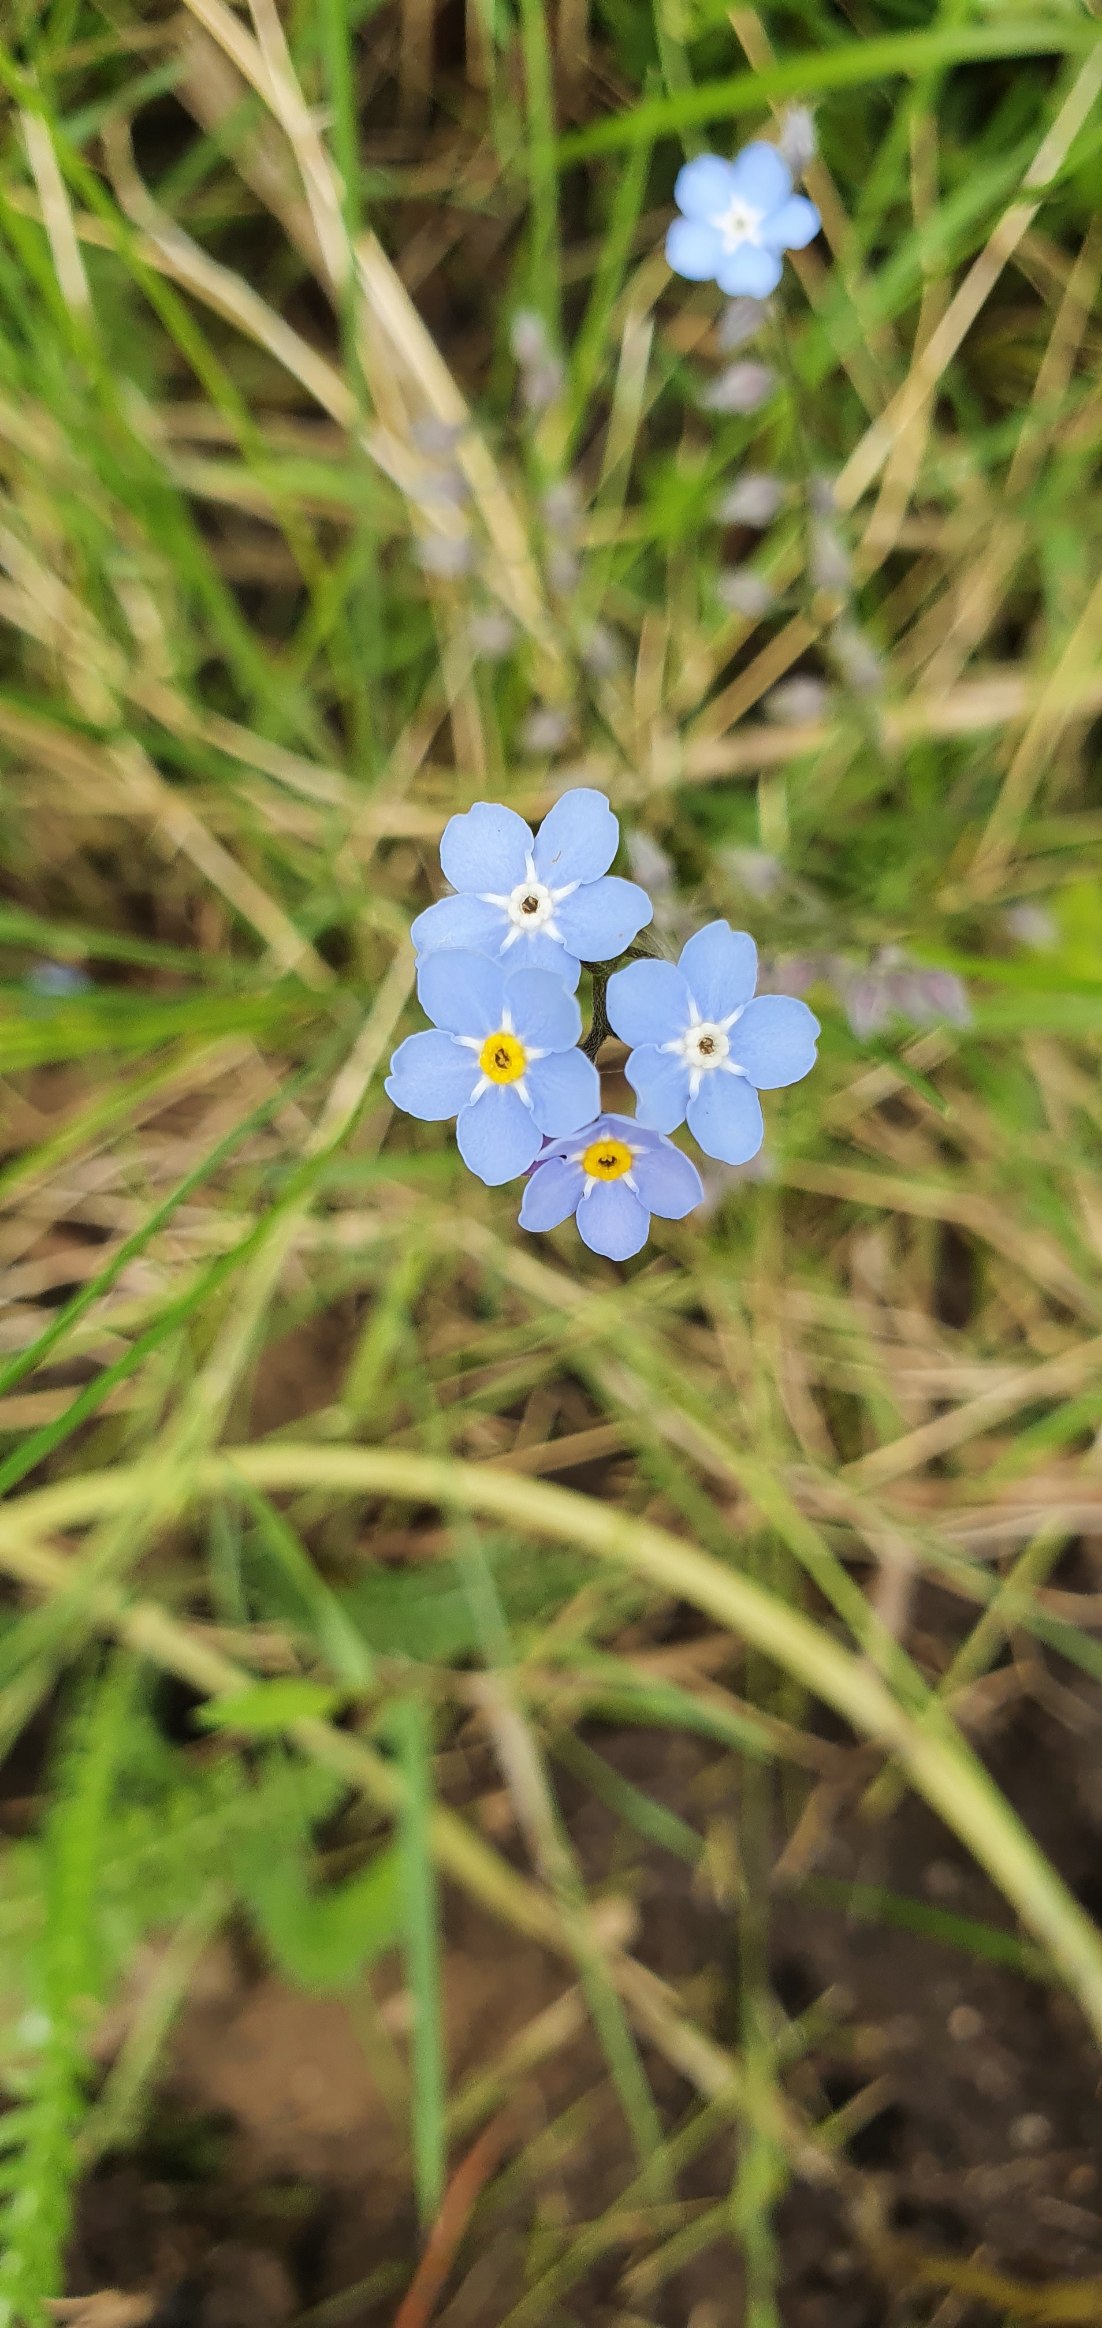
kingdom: Plantae
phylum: Tracheophyta
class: Magnoliopsida
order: Boraginales
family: Boraginaceae
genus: Myosotis
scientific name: Myosotis
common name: Forglemmigejslægten
